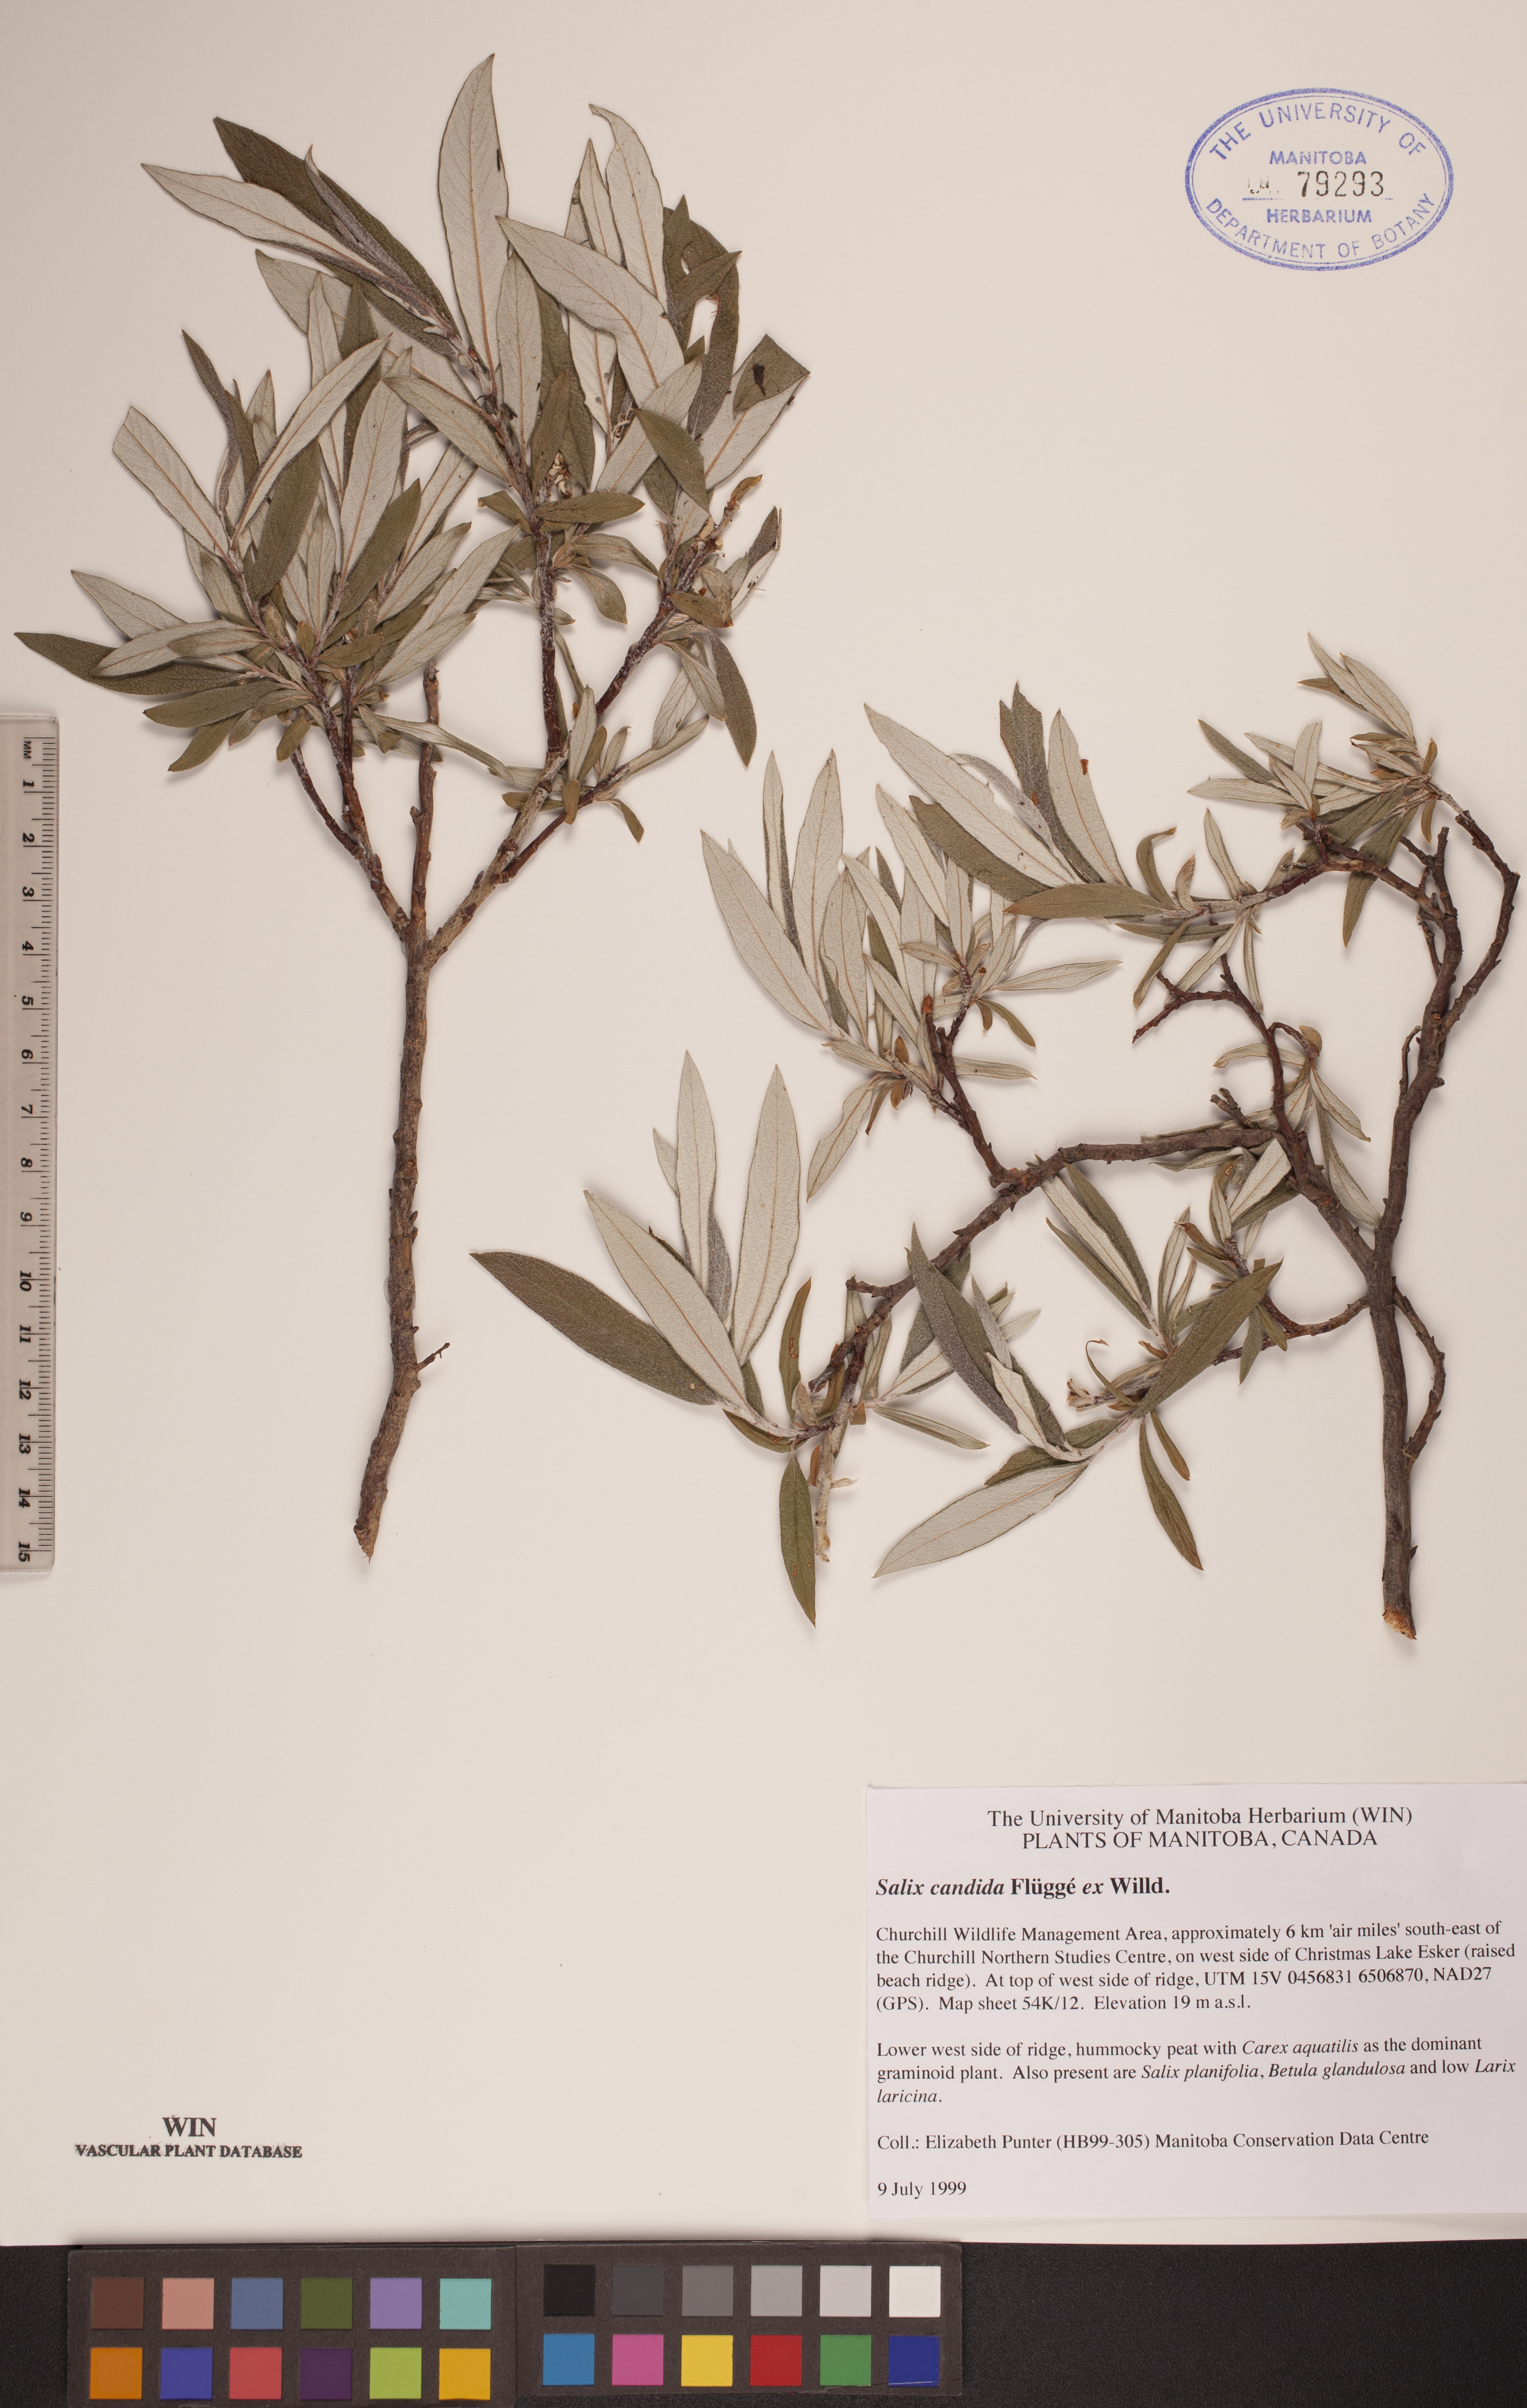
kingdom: Plantae
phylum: Tracheophyta
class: Magnoliopsida
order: Malpighiales
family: Salicaceae
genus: Salix
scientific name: Salix candida
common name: Hoary willow
